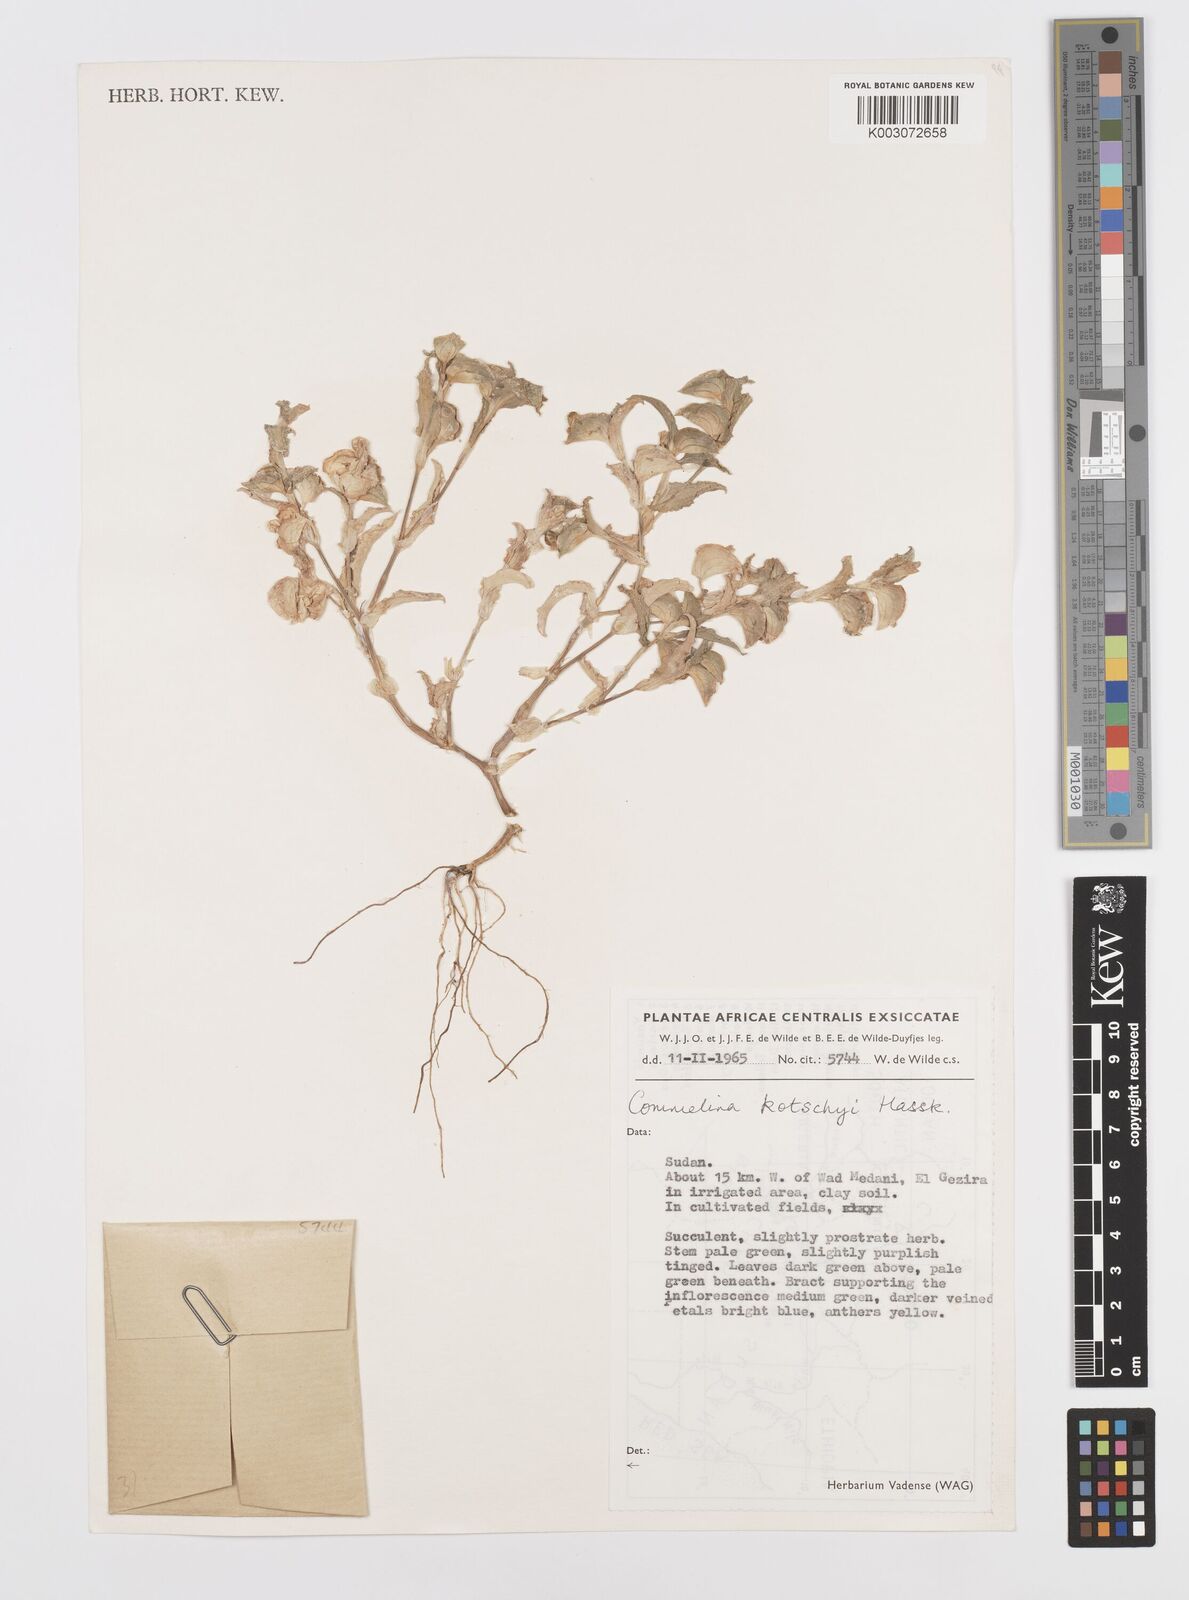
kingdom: Plantae
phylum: Tracheophyta
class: Liliopsida
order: Commelinales
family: Commelinaceae
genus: Commelina
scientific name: Commelina kotschyi
